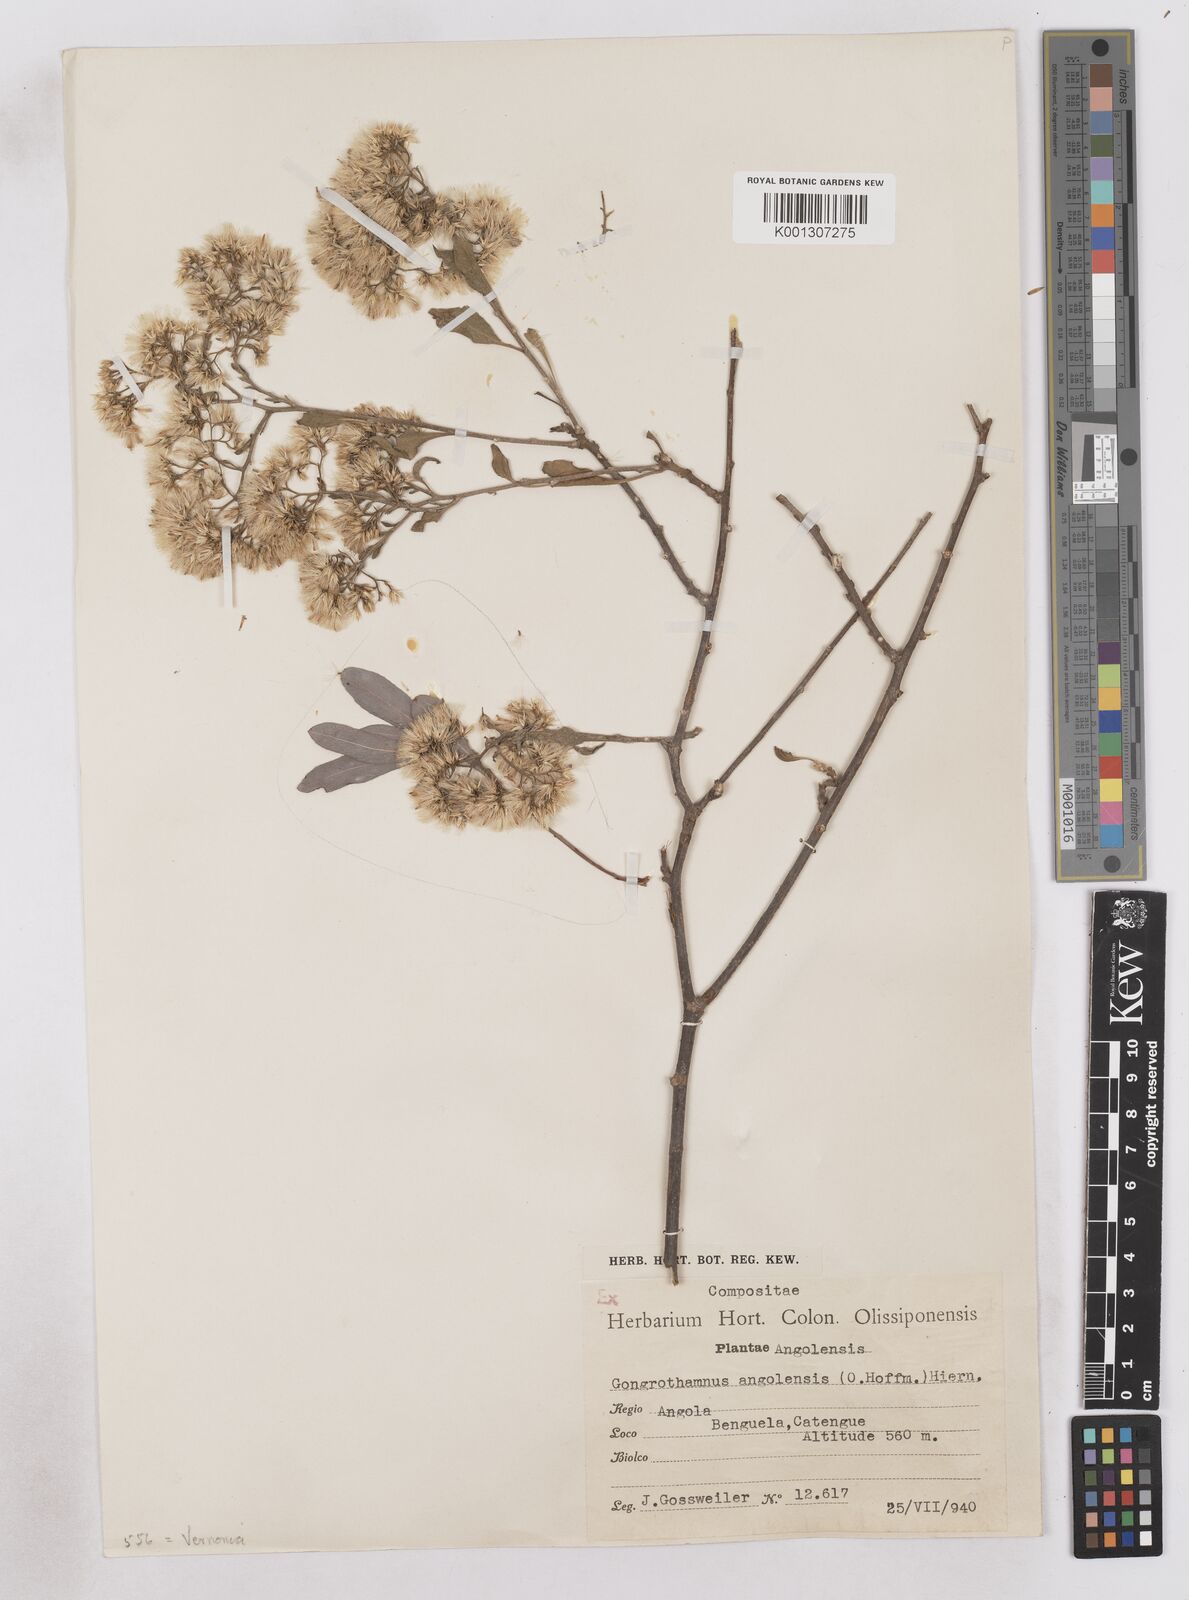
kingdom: Plantae
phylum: Tracheophyta
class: Magnoliopsida
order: Asterales
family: Asteraceae
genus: Distephanus
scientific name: Distephanus angolensis
